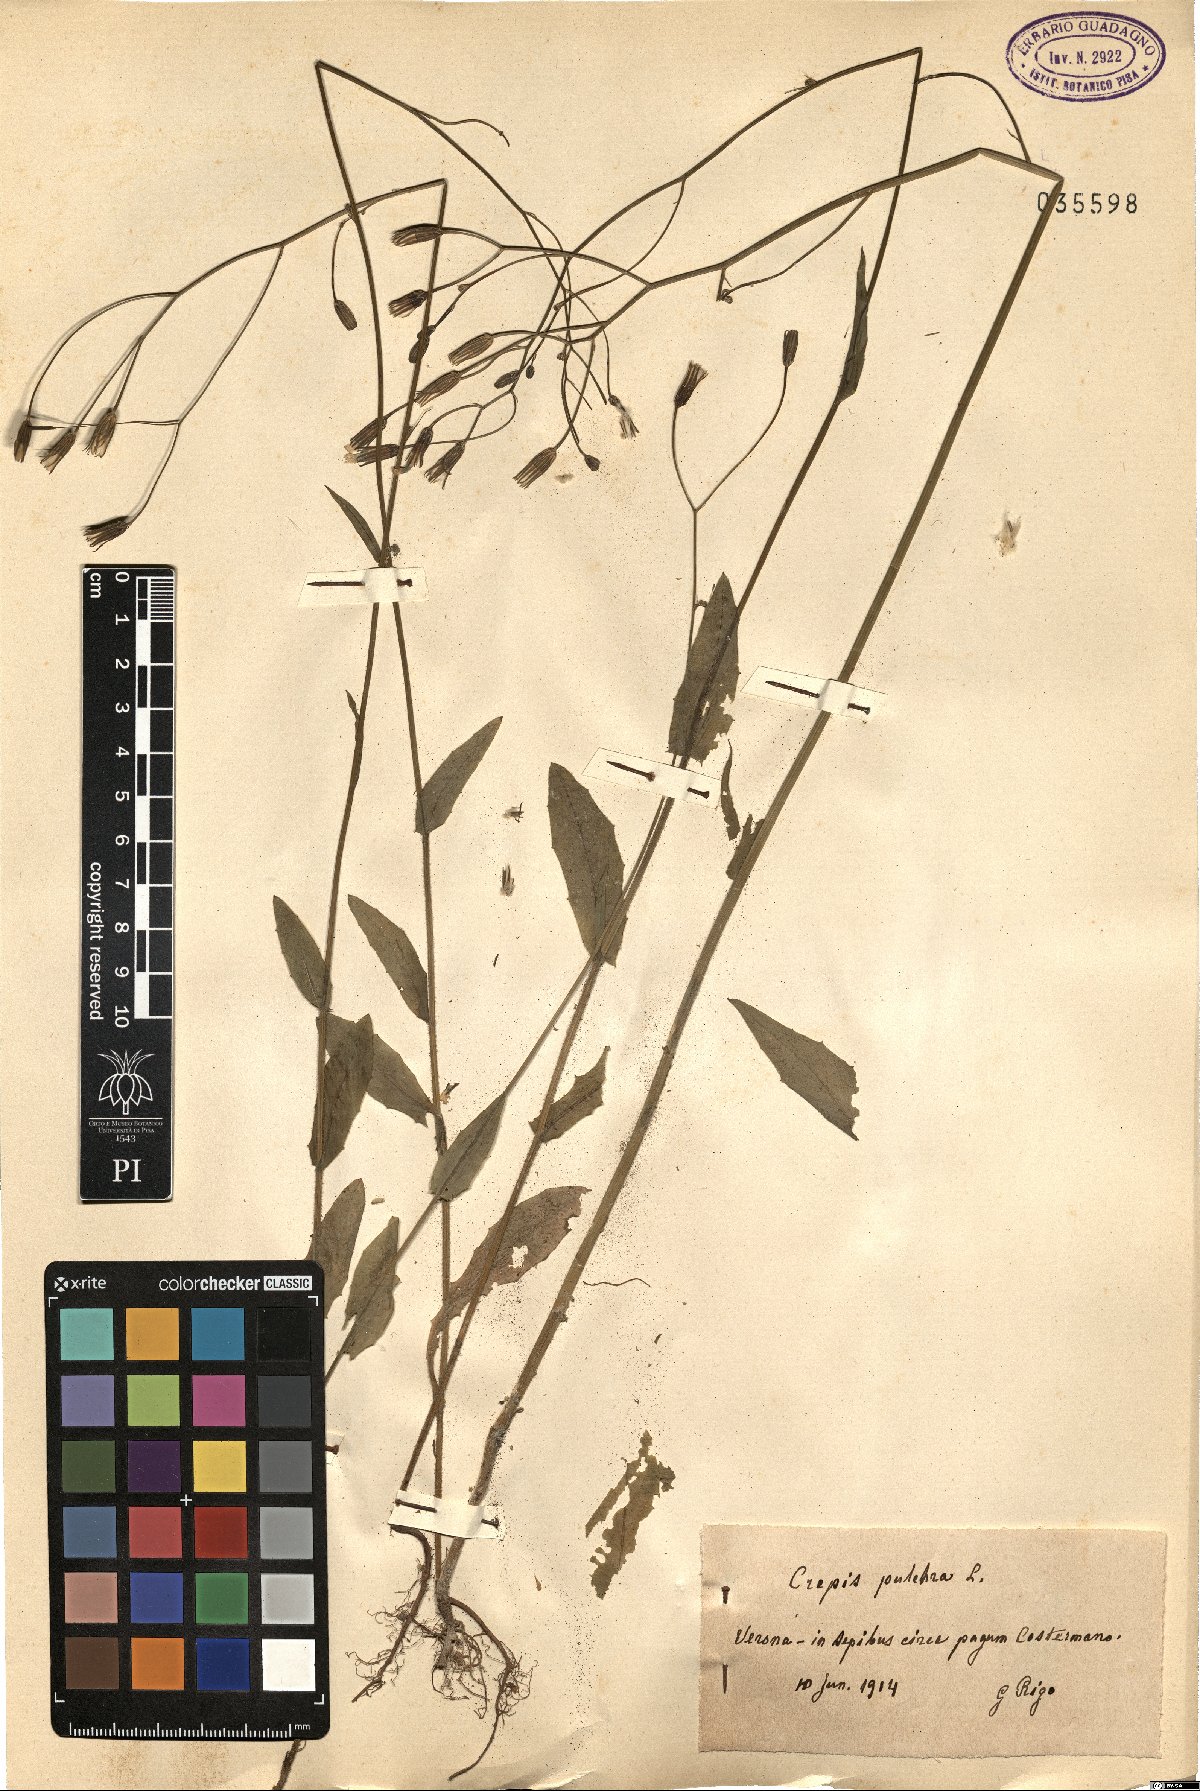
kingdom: Plantae
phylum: Tracheophyta
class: Magnoliopsida
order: Asterales
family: Asteraceae
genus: Crepis
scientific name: Crepis pulchra
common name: Hawk's-beard
